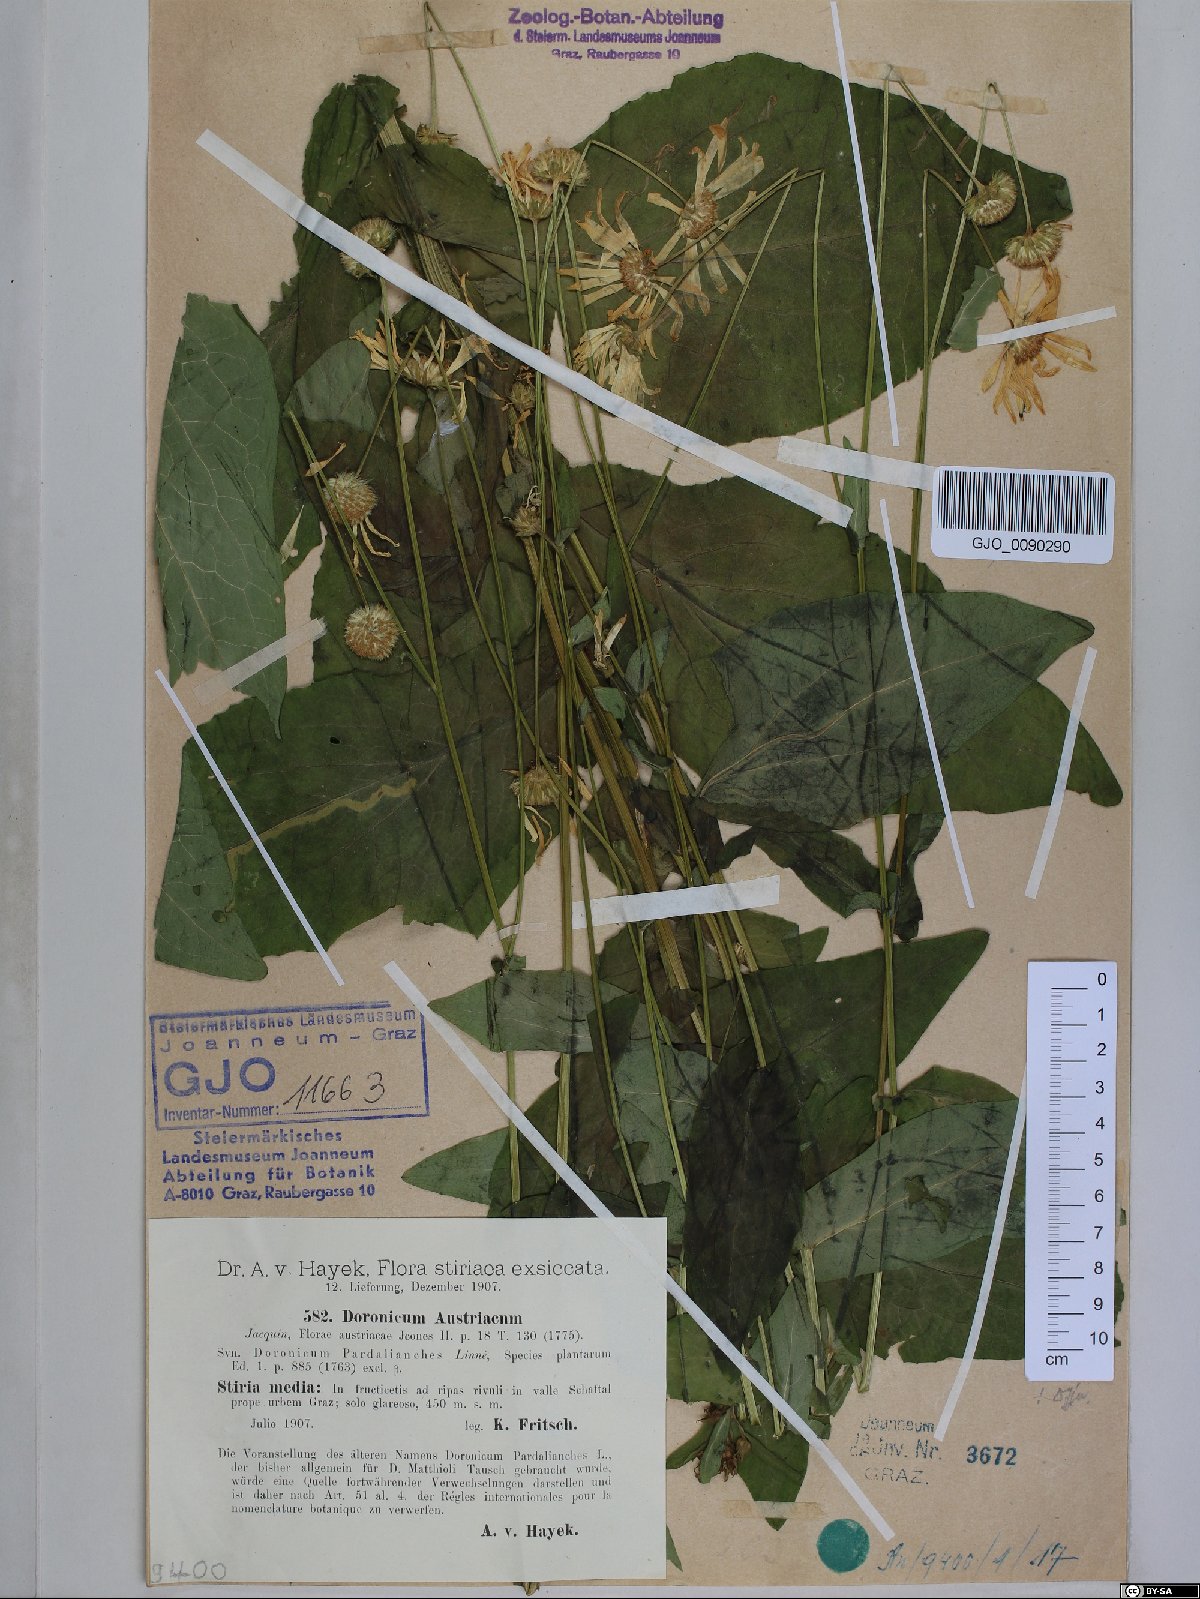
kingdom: Plantae
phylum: Tracheophyta
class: Magnoliopsida
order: Asterales
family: Asteraceae
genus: Doronicum
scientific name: Doronicum austriacum
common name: Austrian leopard's-bane
